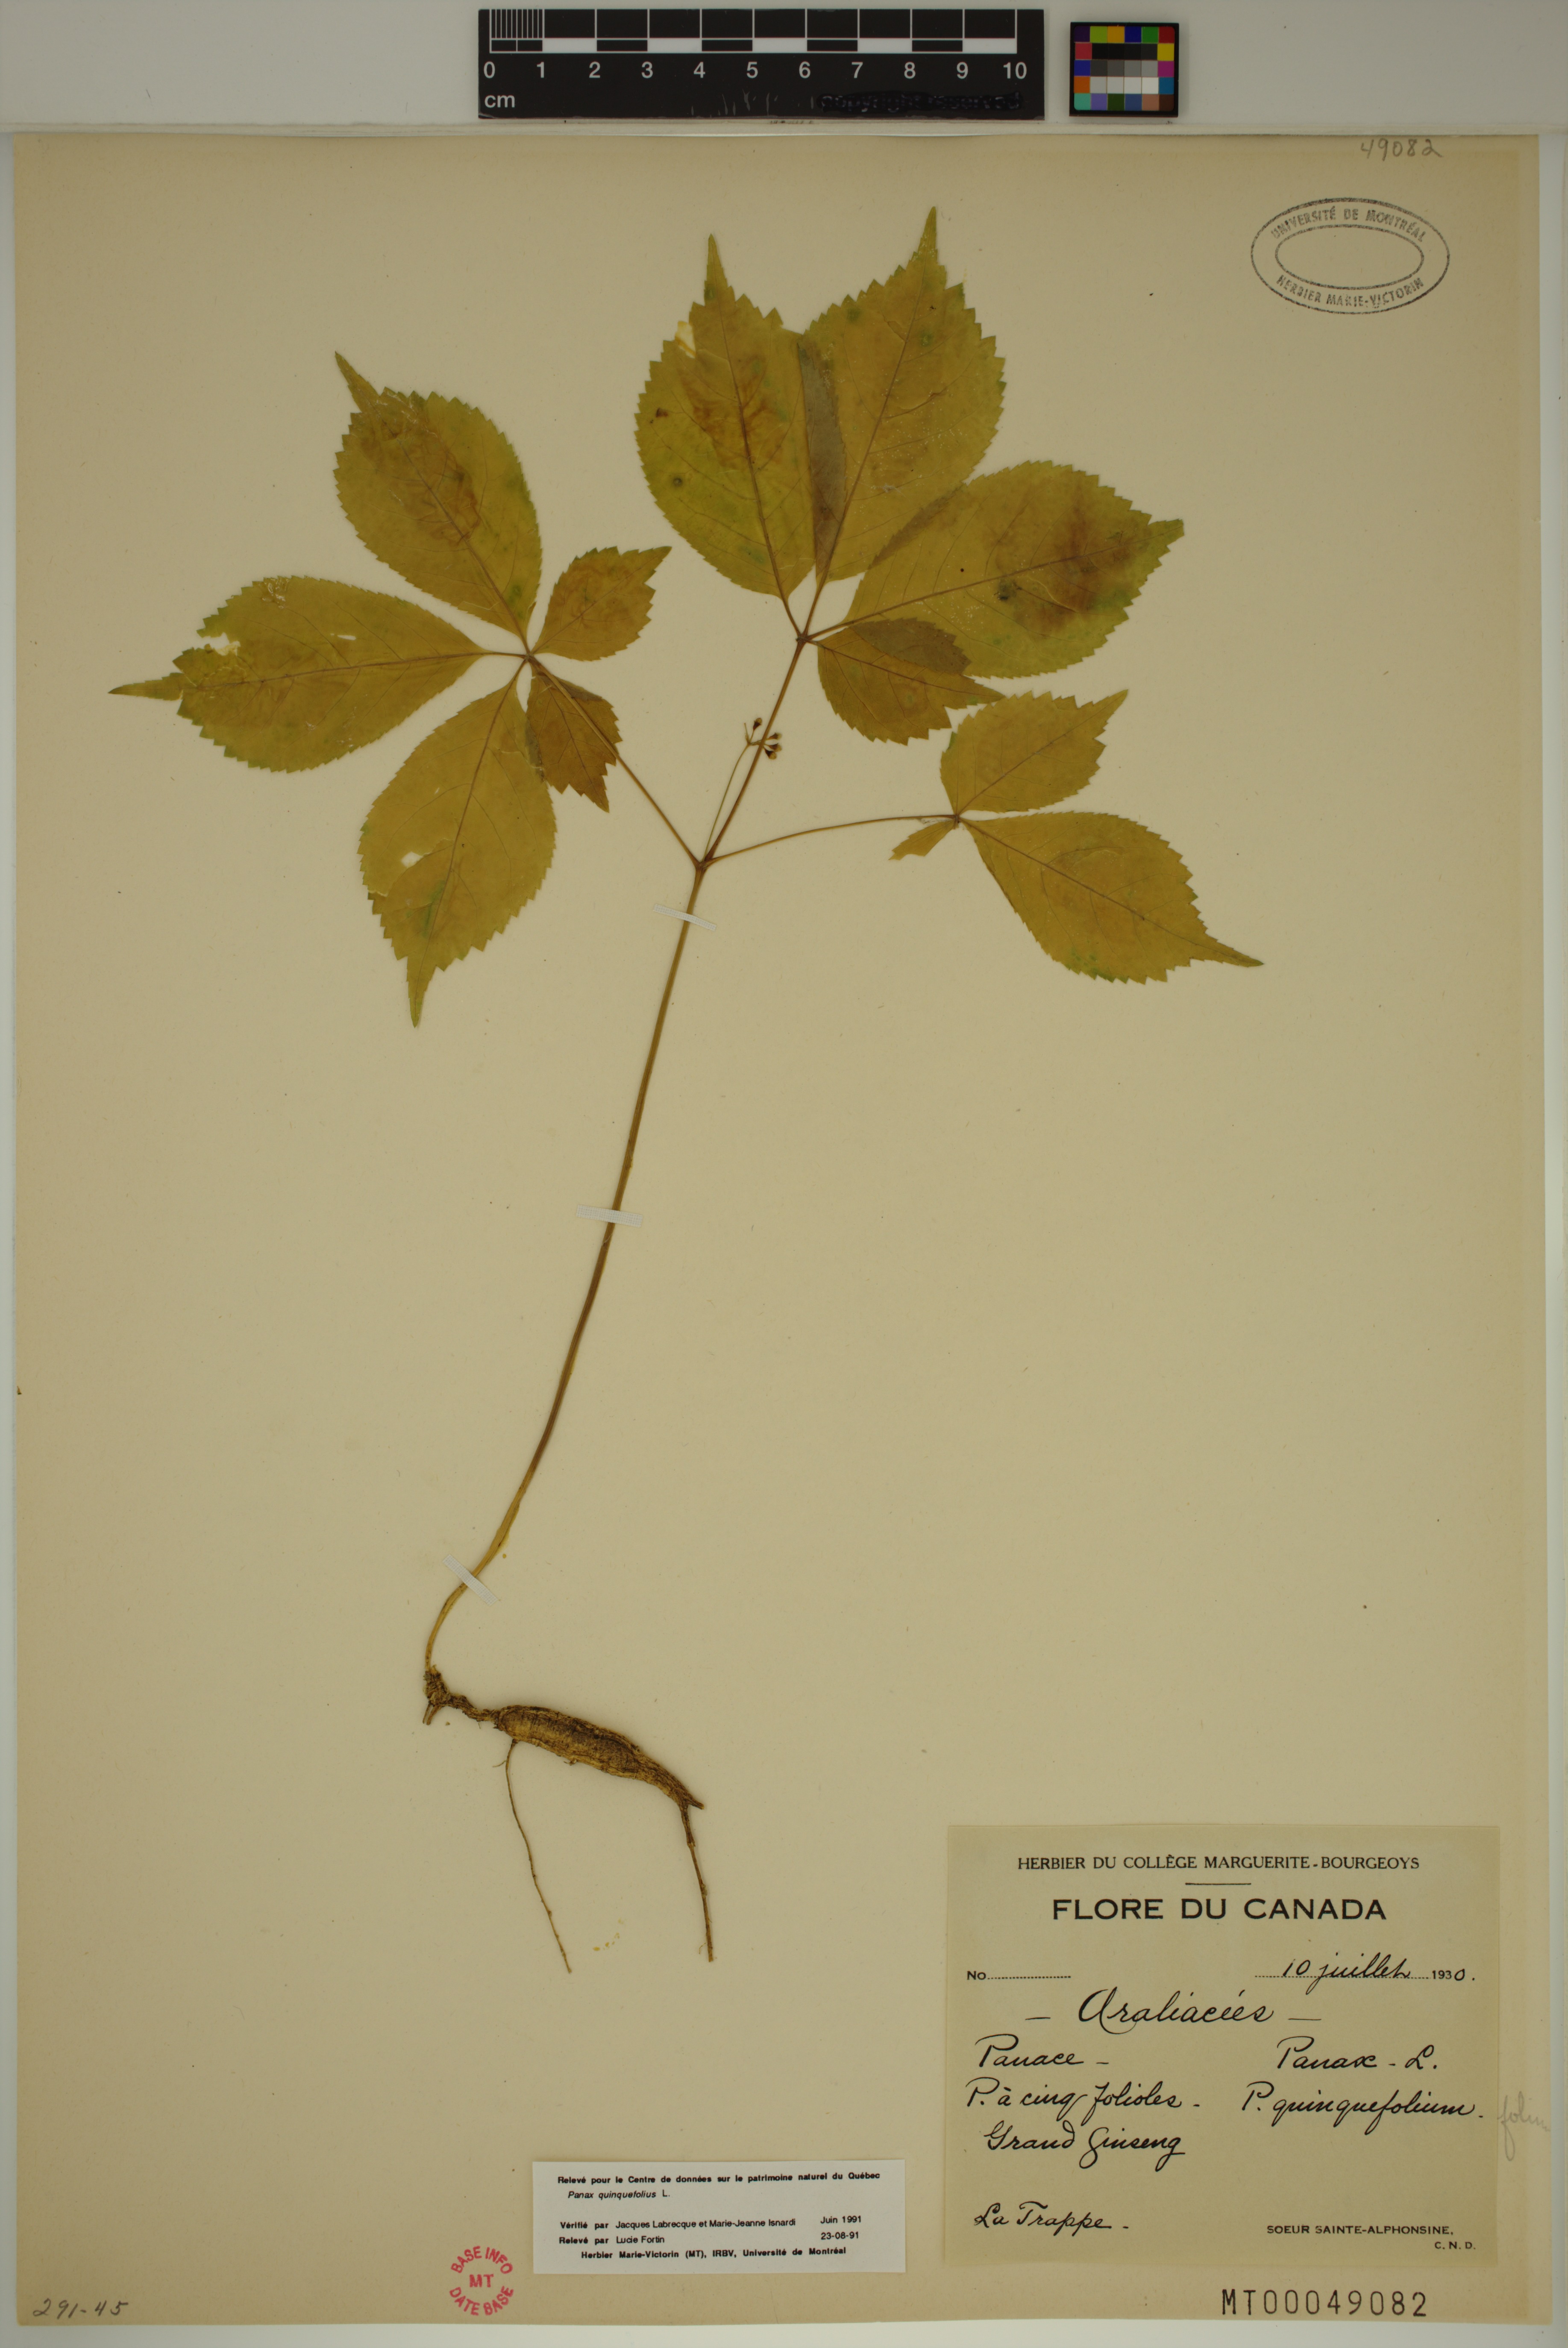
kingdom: Plantae
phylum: Tracheophyta
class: Magnoliopsida
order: Apiales
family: Araliaceae
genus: Panax
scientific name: Panax quinquefolius
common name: American ginseng
